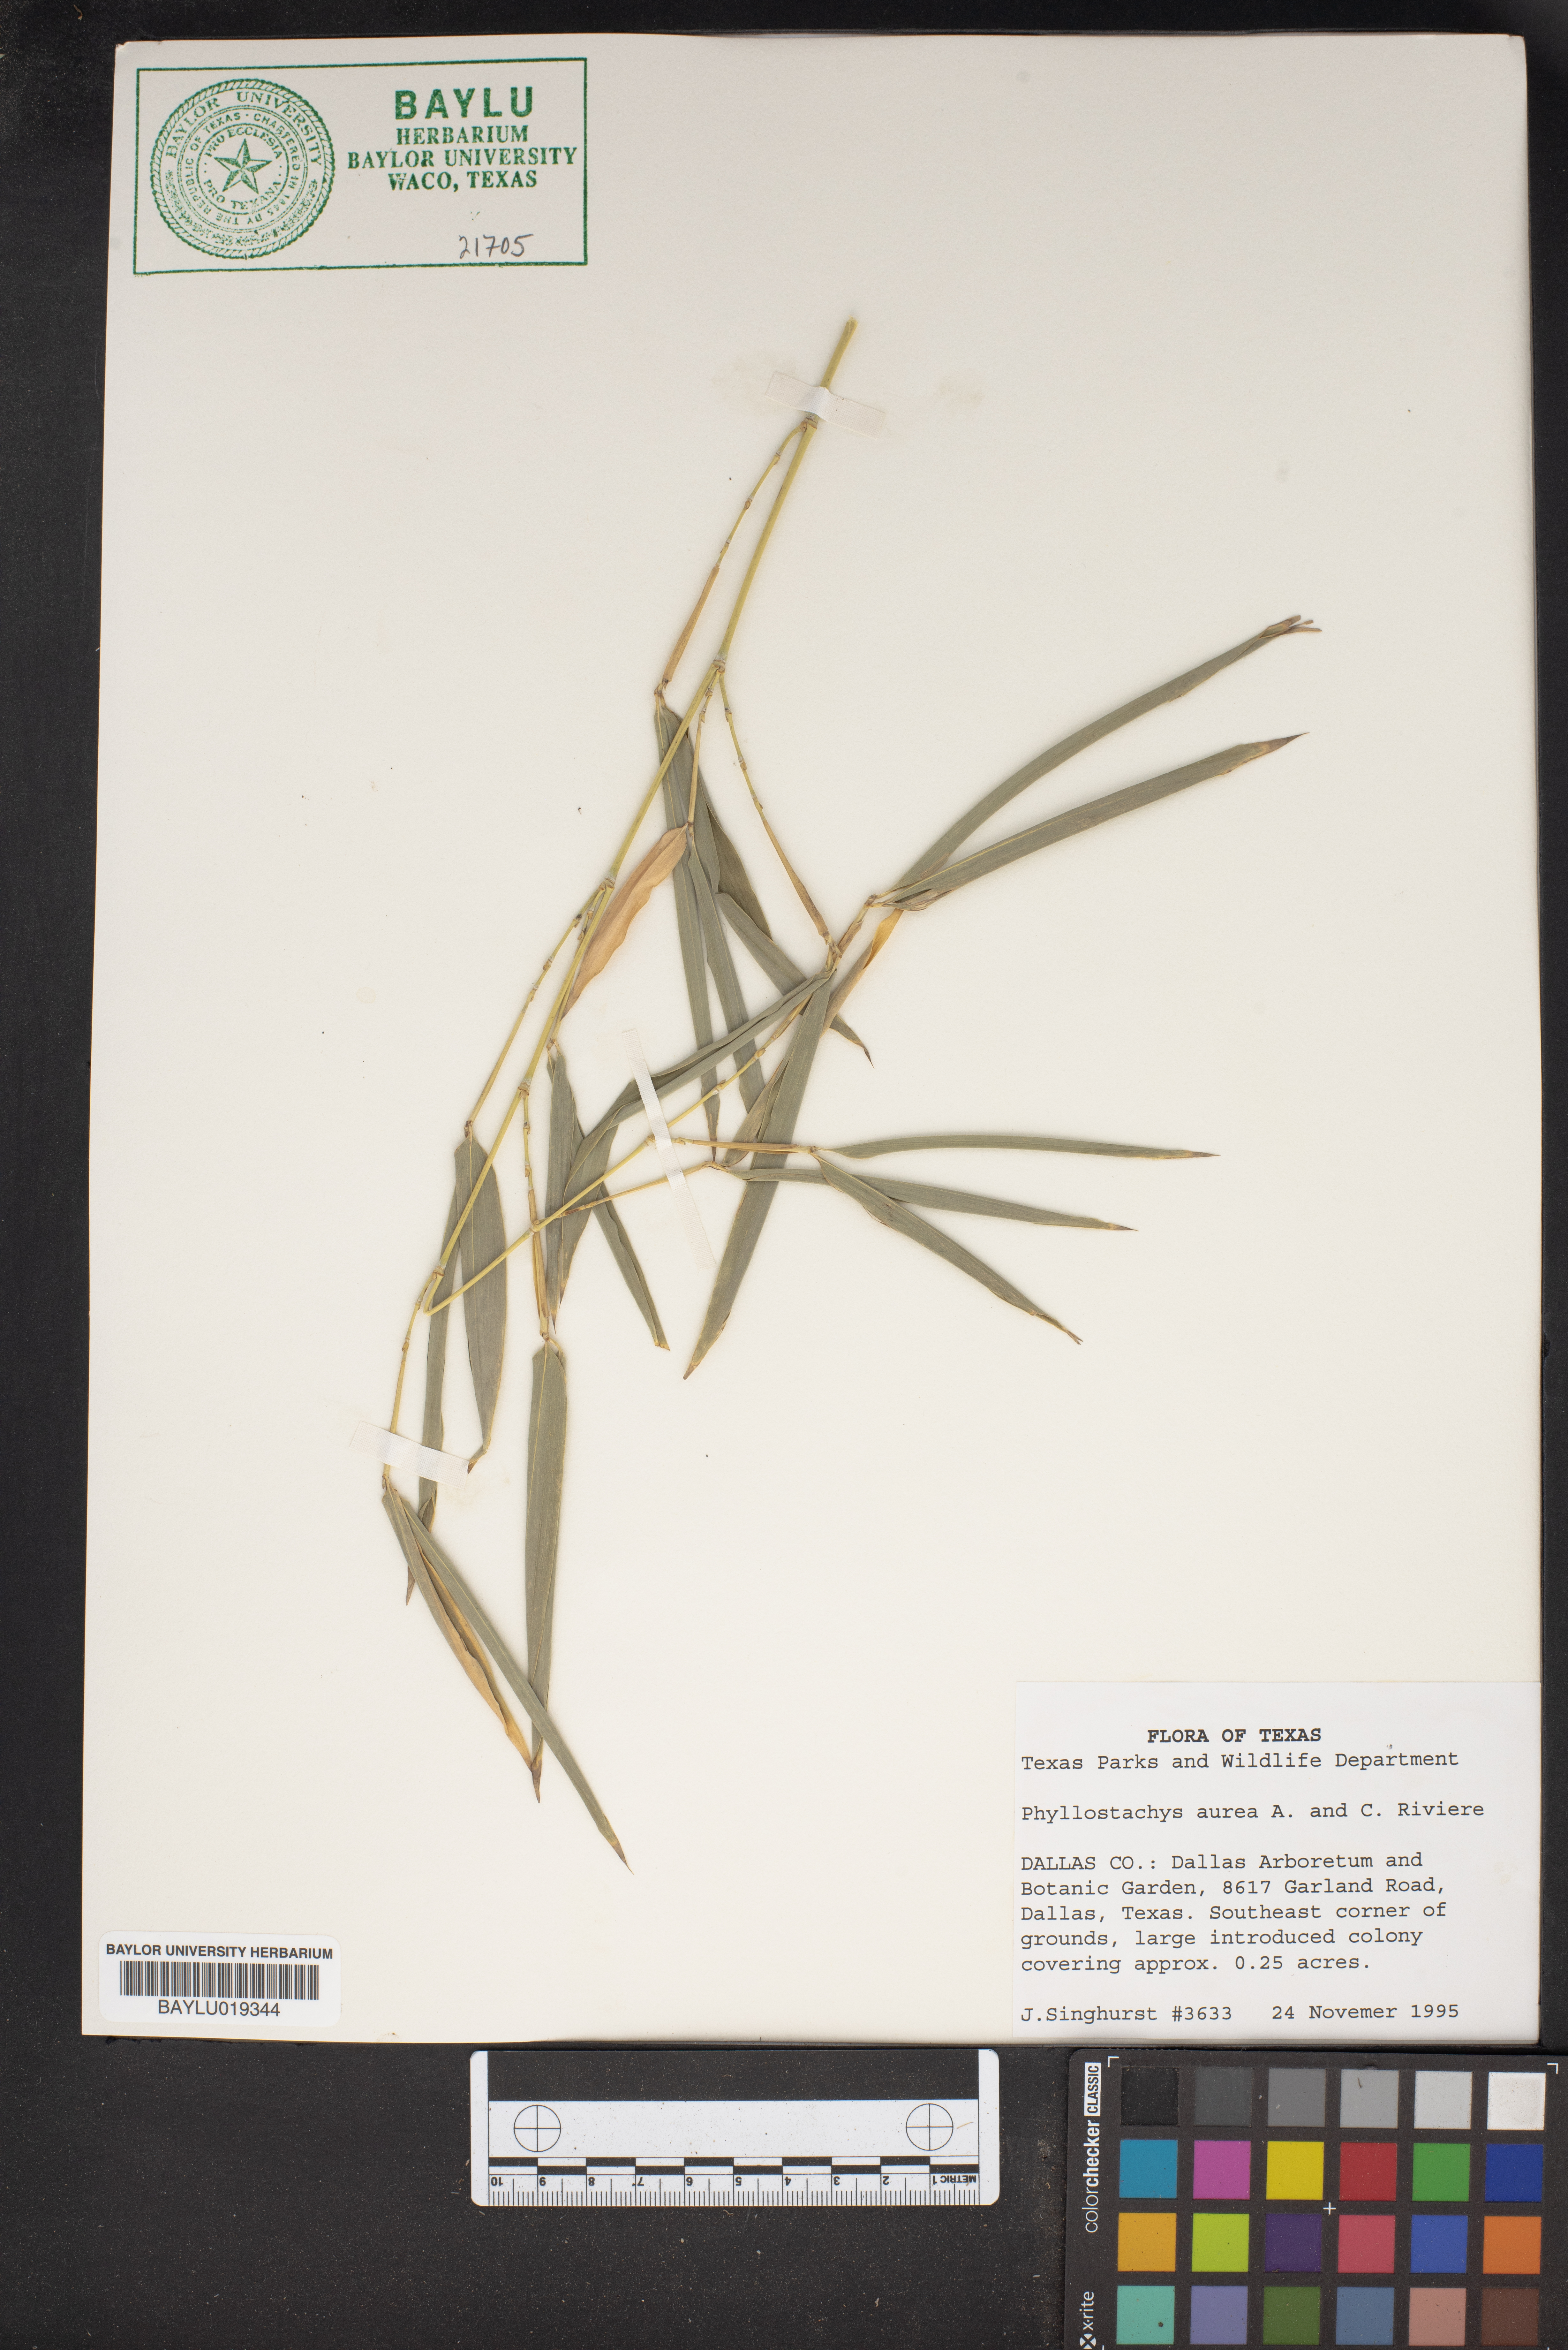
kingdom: Plantae
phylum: Tracheophyta
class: Liliopsida
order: Poales
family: Poaceae
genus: Phyllostachys
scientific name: Phyllostachys aurea
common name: Golden bamboo
